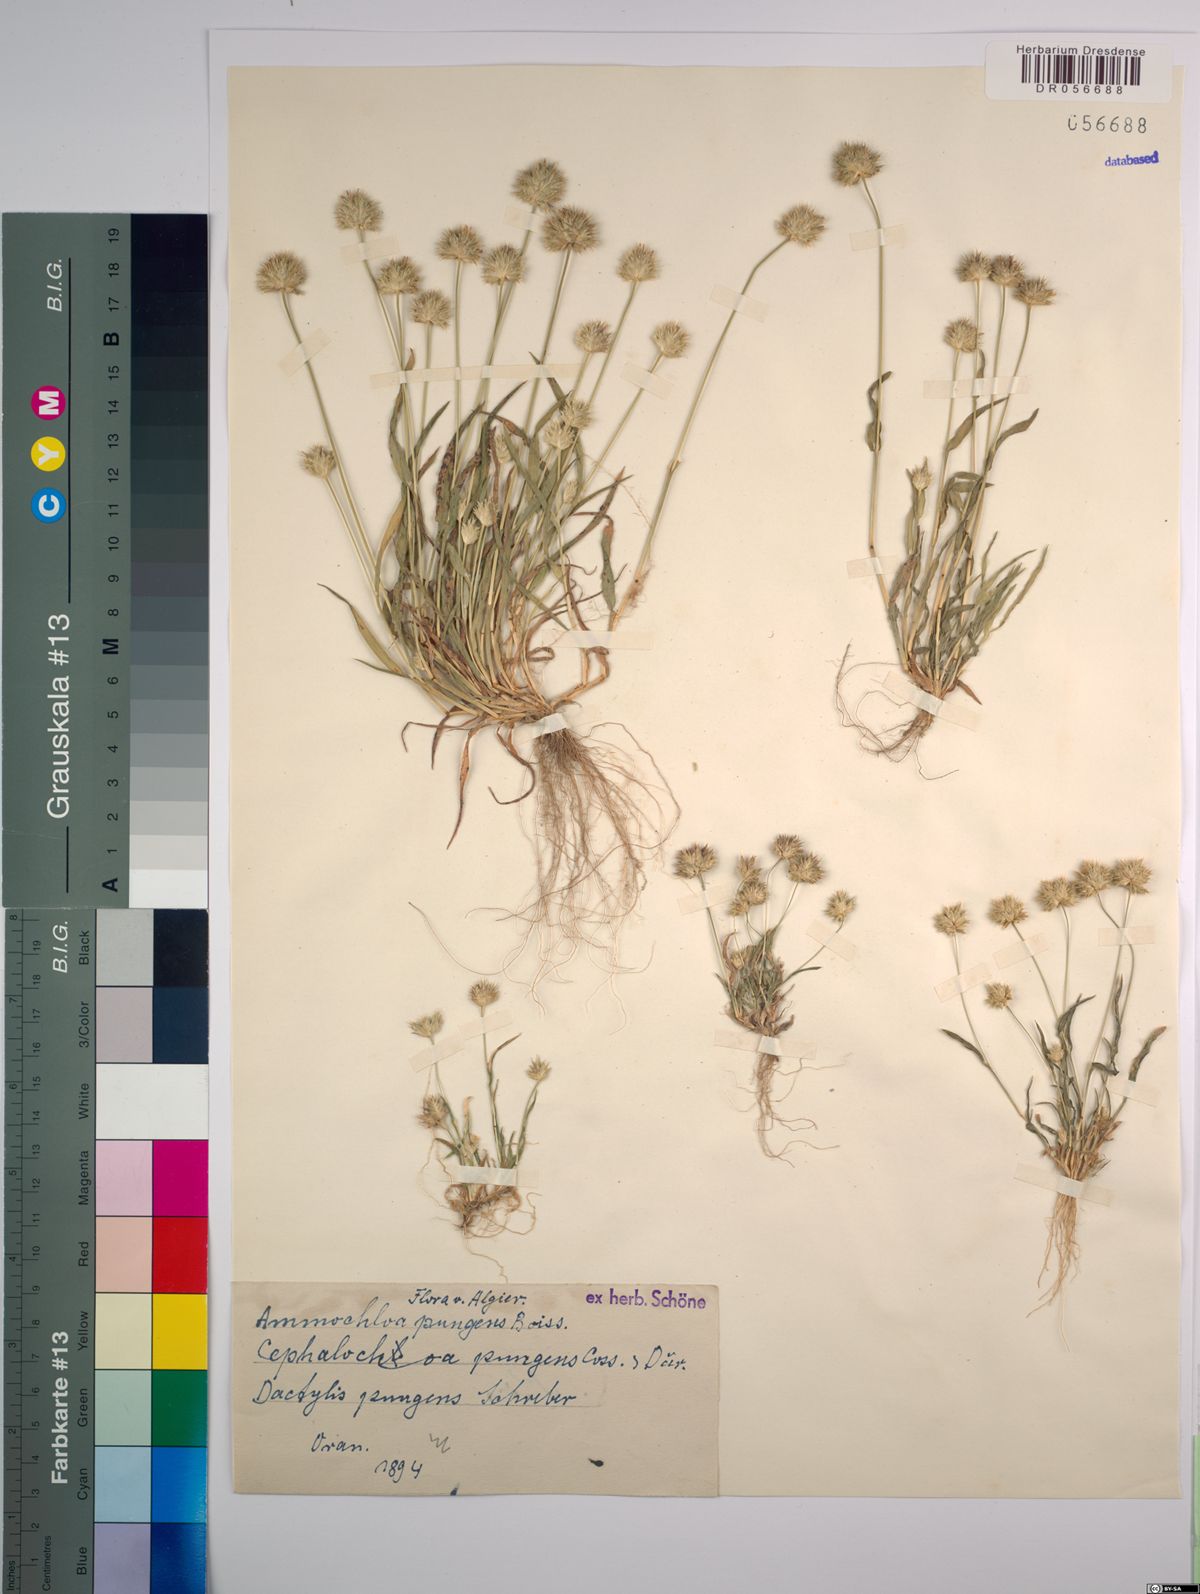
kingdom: Plantae
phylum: Tracheophyta
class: Liliopsida
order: Poales
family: Poaceae
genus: Ammochloa
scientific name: Ammochloa pungens
